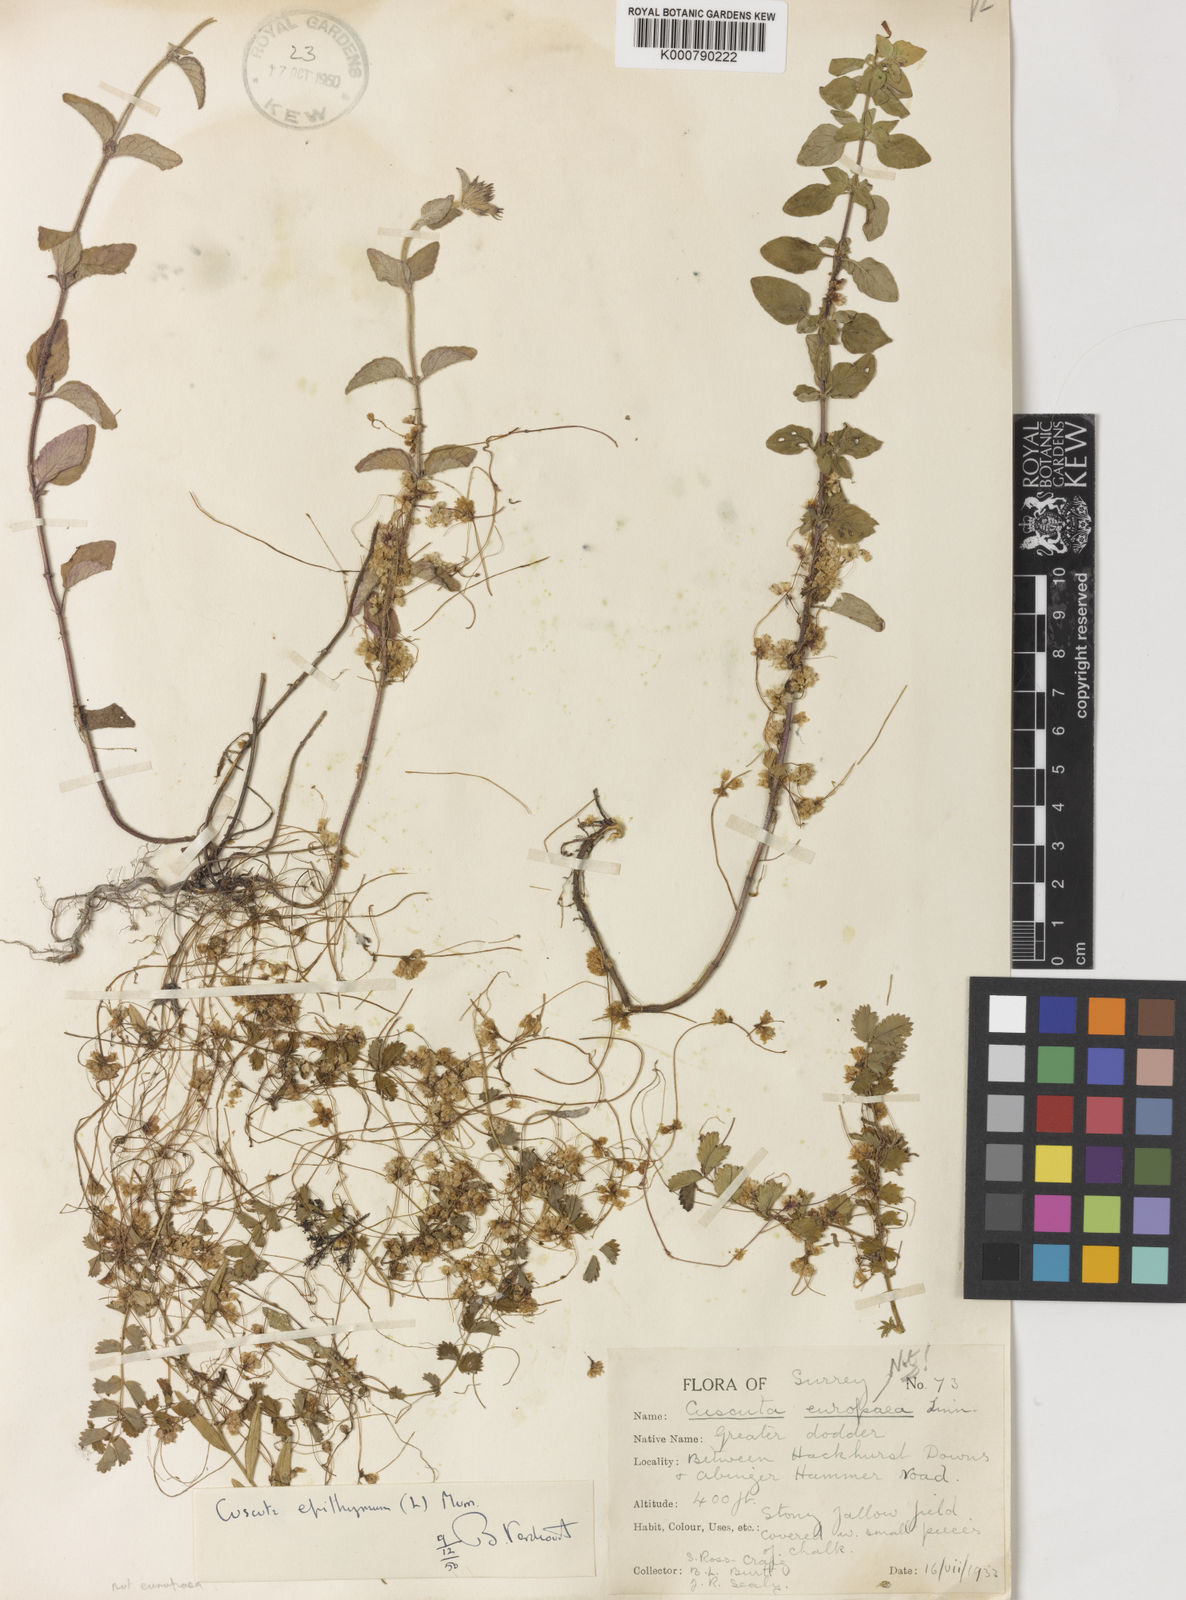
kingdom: Plantae
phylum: Tracheophyta
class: Magnoliopsida
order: Solanales
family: Convolvulaceae
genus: Cuscuta
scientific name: Cuscuta epithymum
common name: Clover dodder
